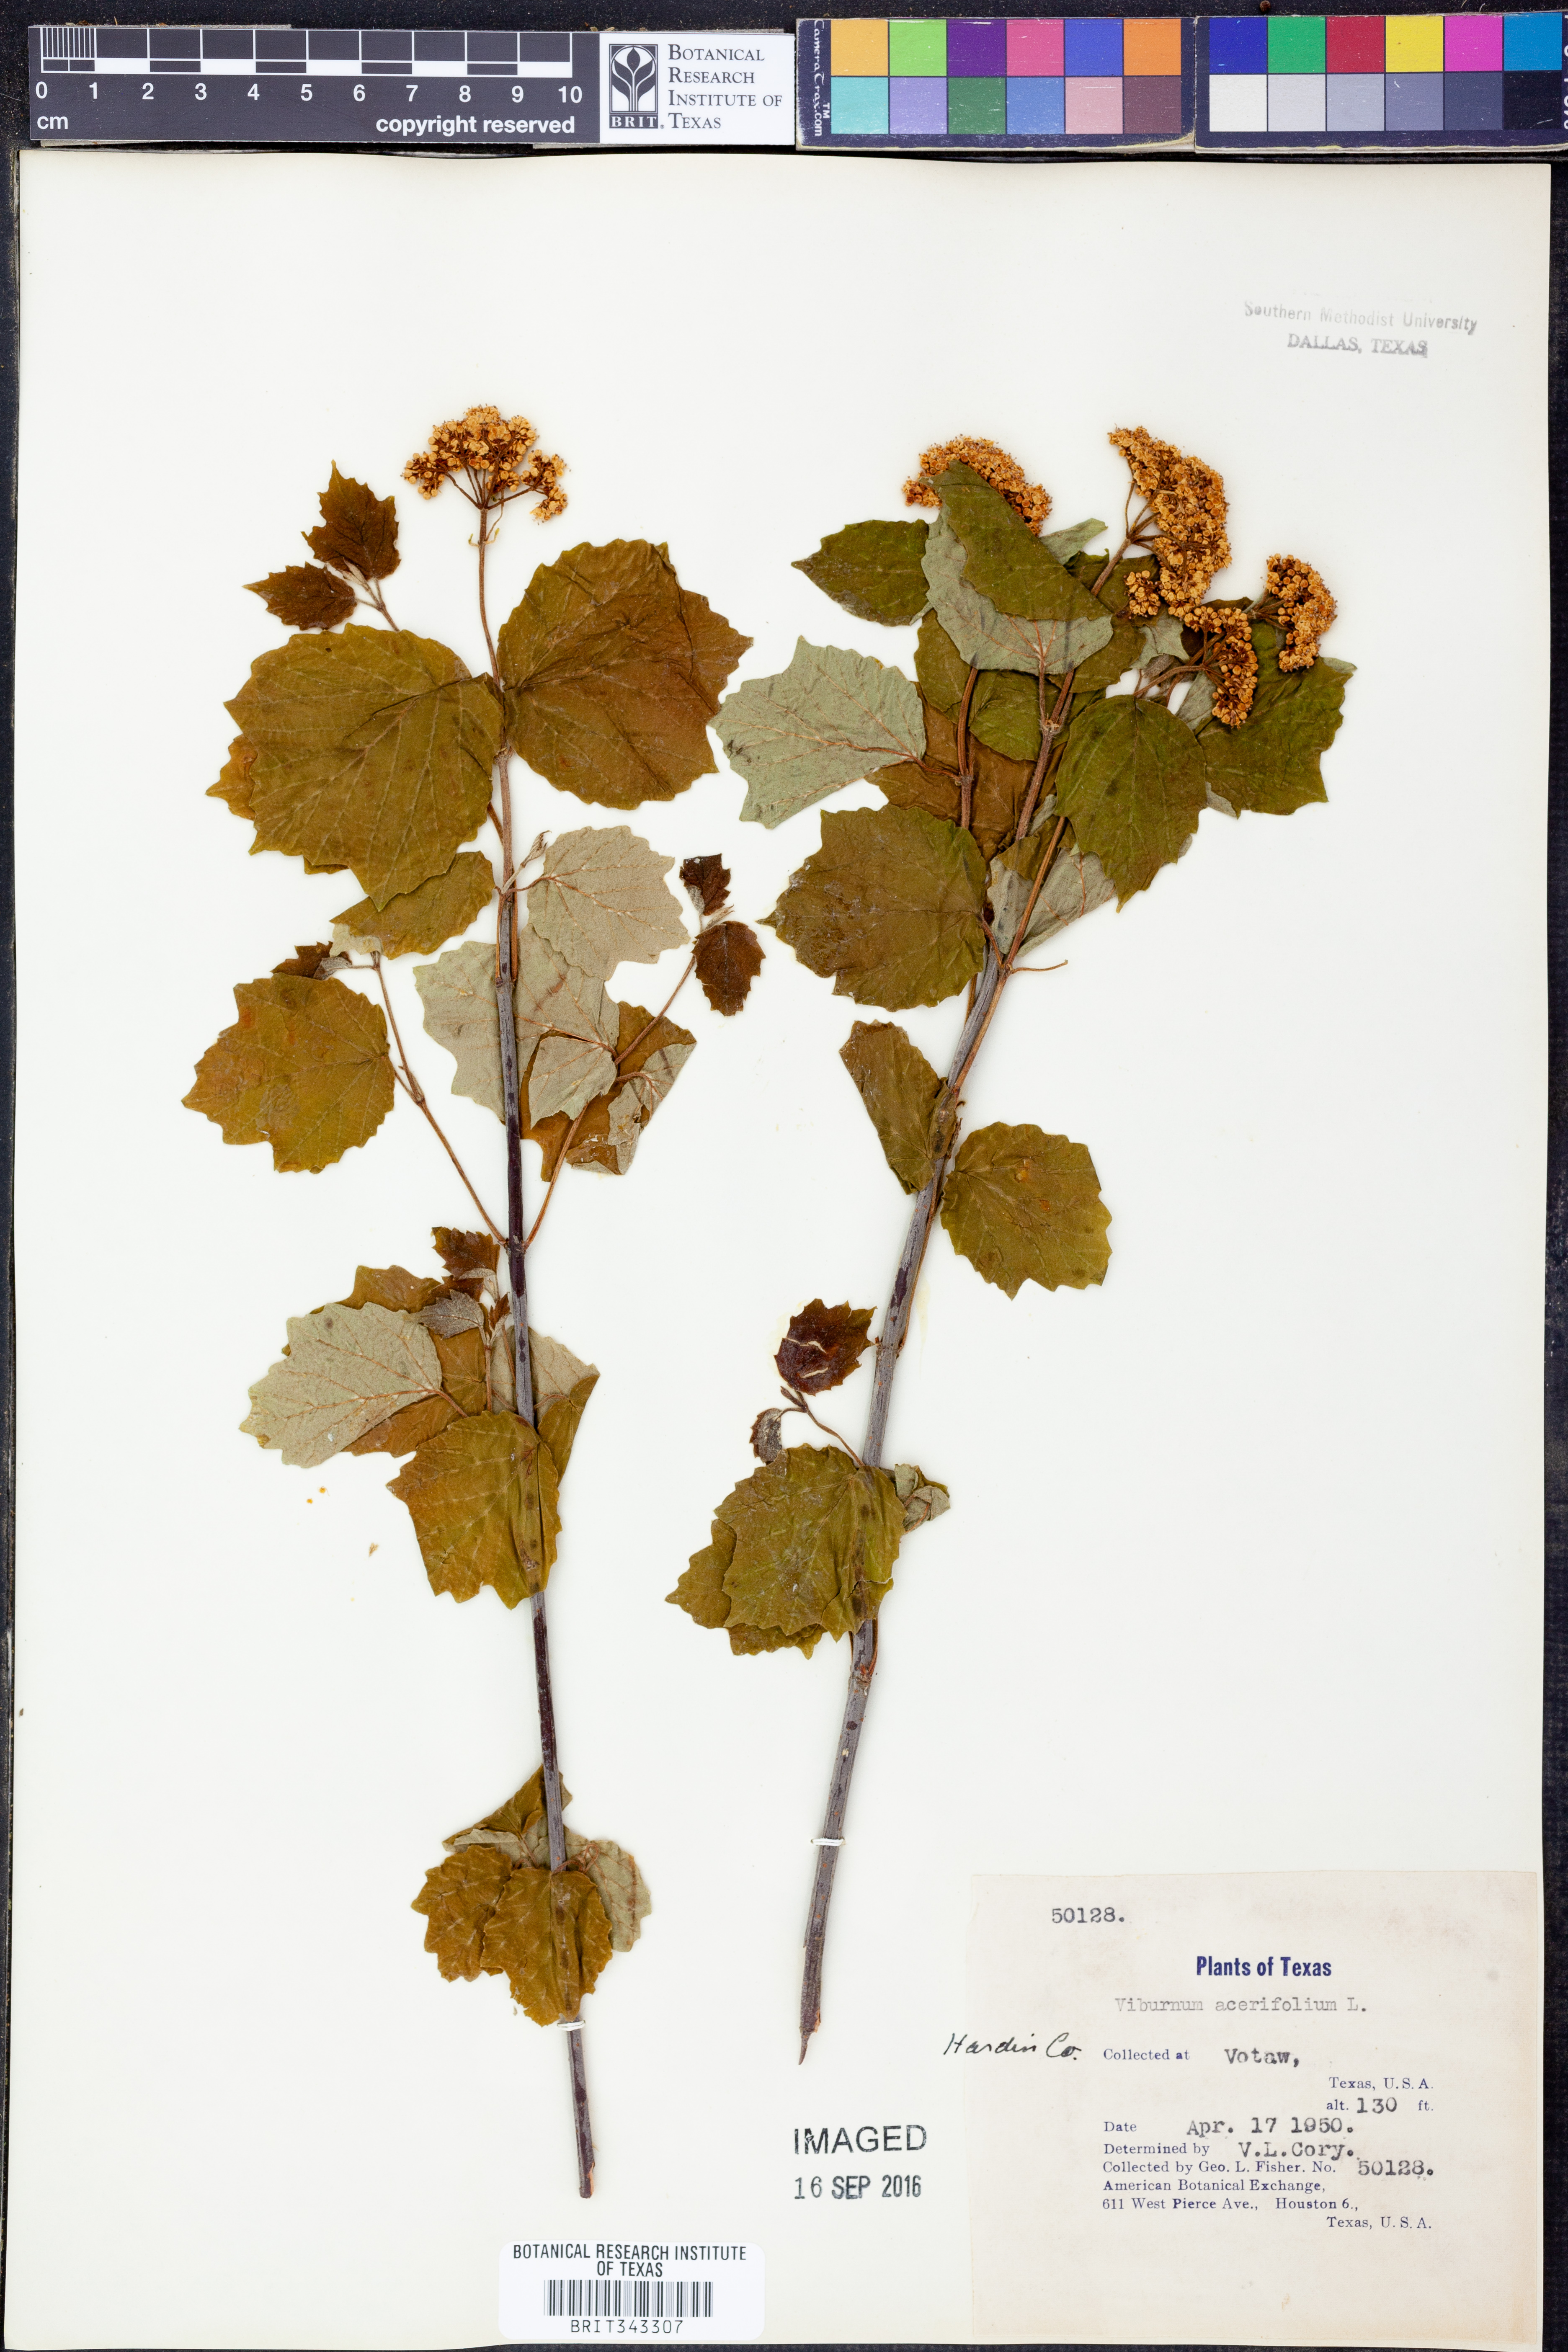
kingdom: Plantae
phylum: Tracheophyta
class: Magnoliopsida
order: Dipsacales
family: Viburnaceae
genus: Viburnum
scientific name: Viburnum acerifolium
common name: Dockmackie
